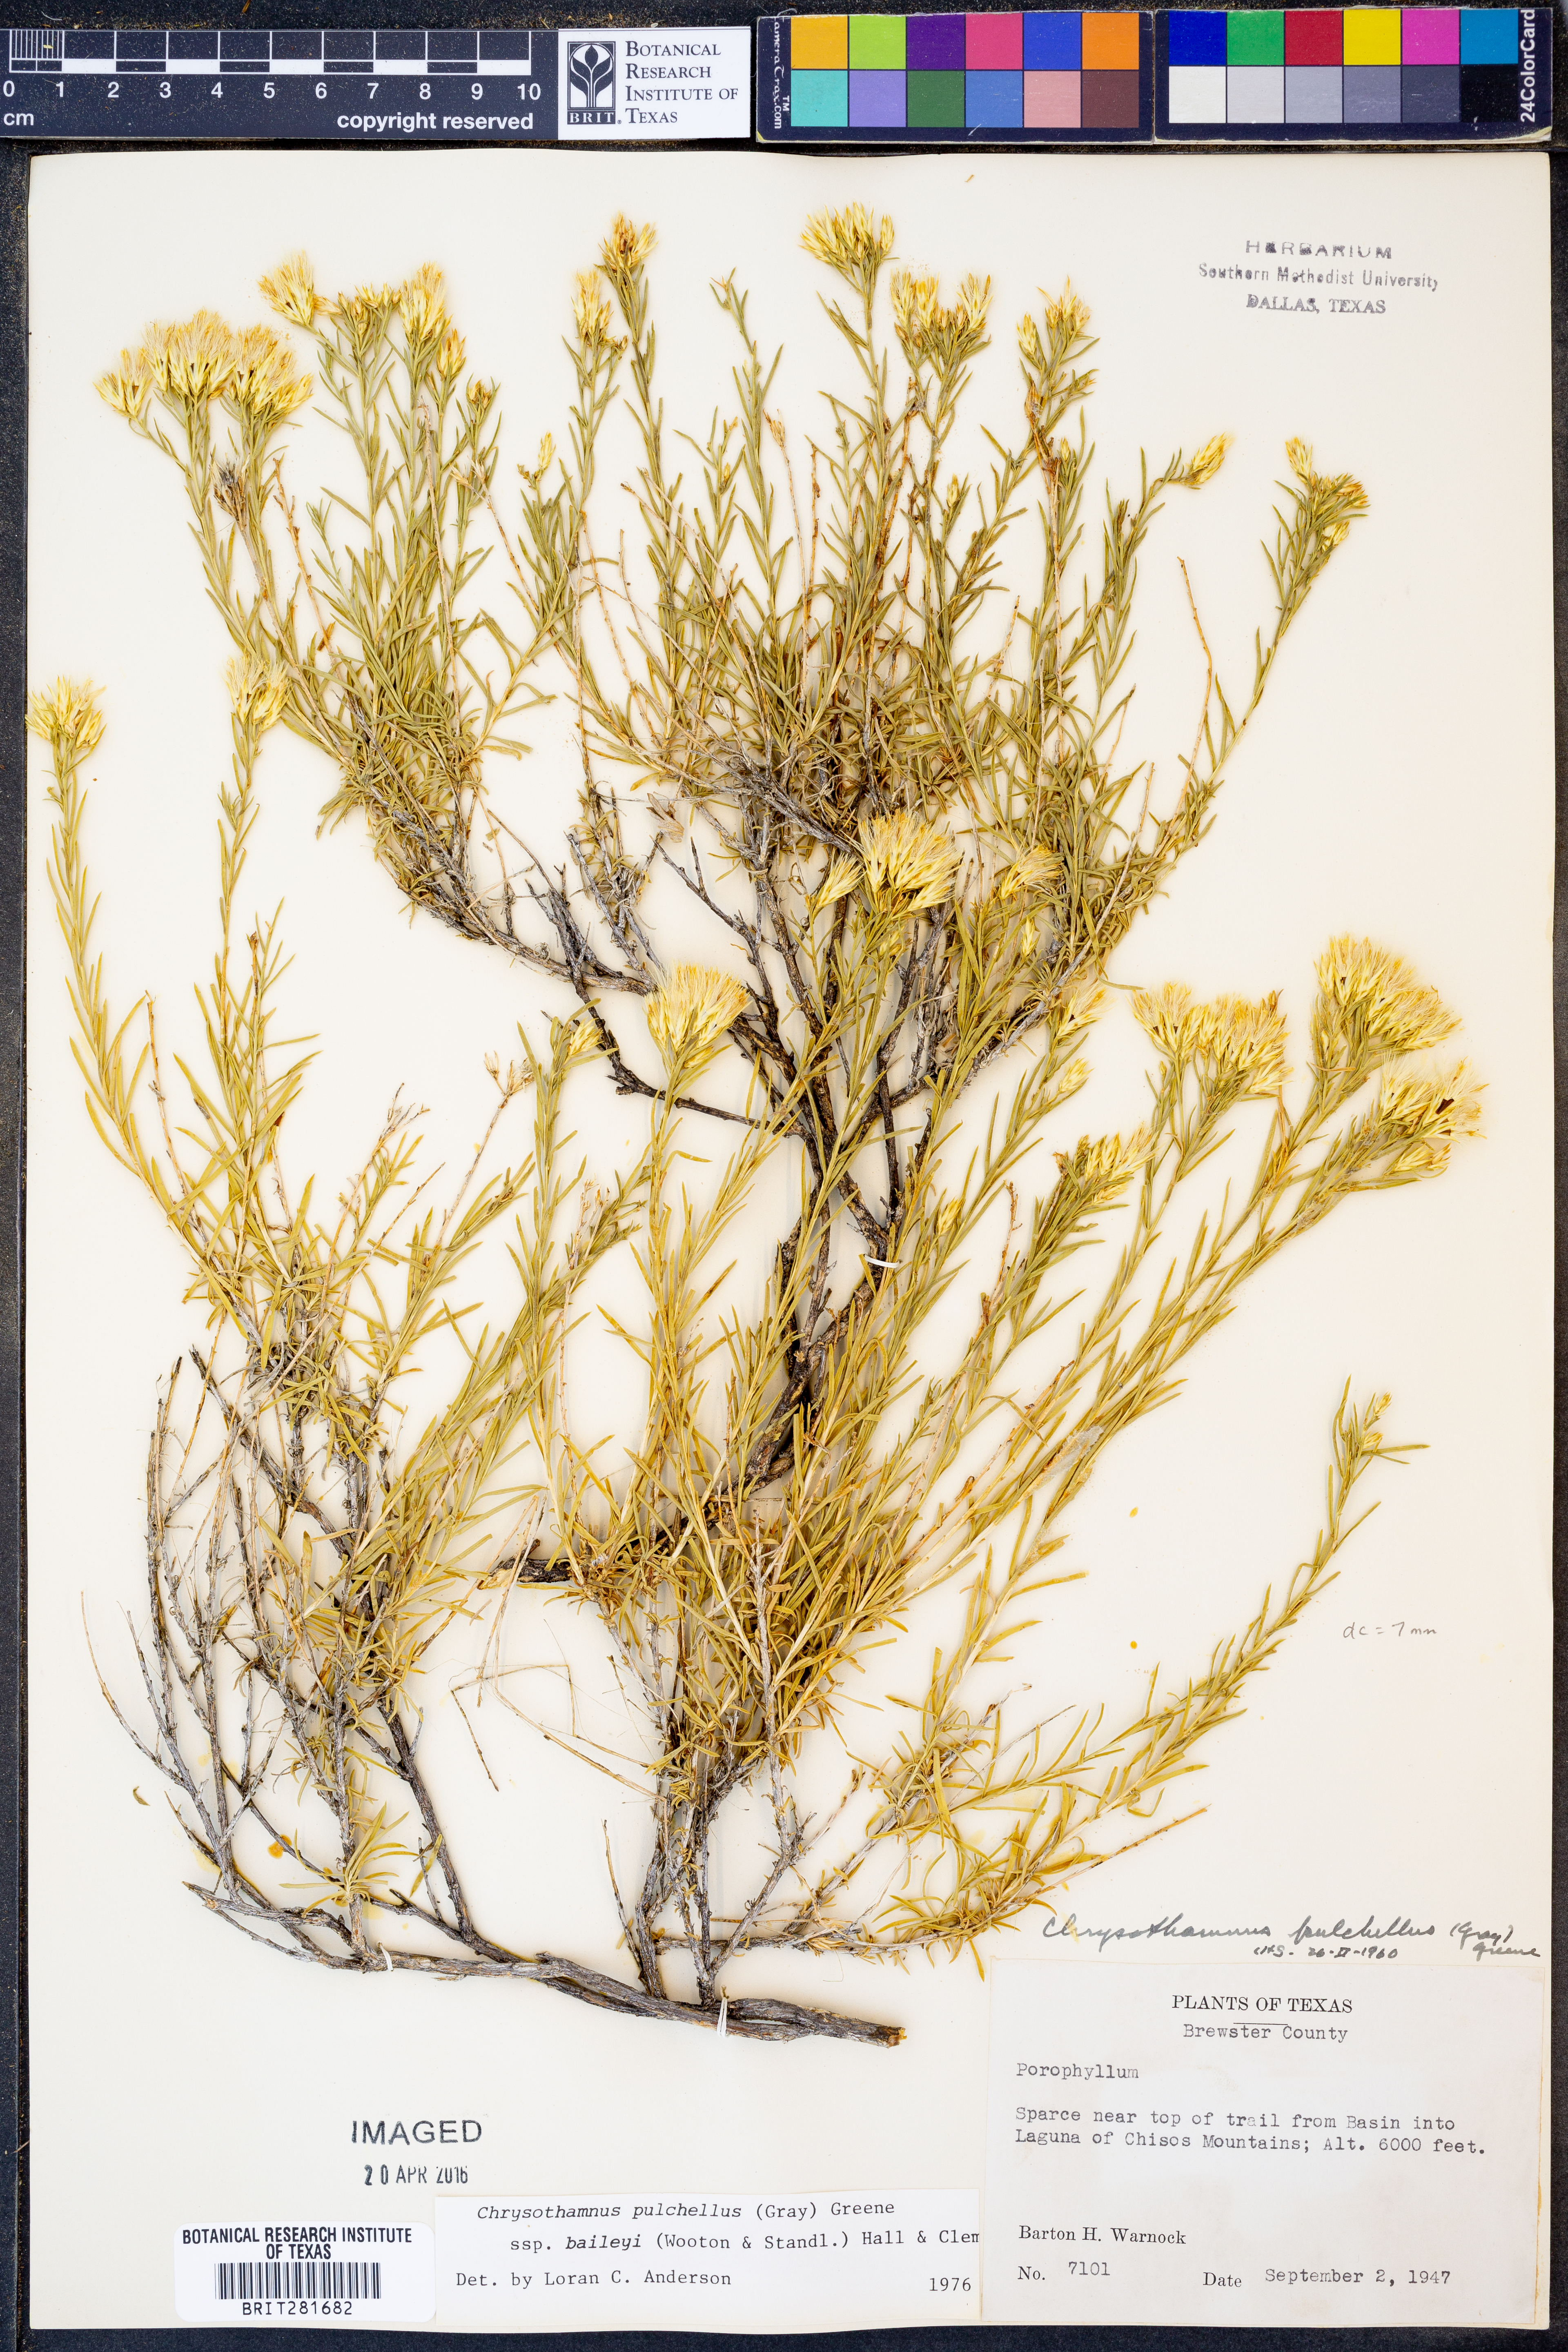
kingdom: Plantae
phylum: Tracheophyta
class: Magnoliopsida
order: Asterales
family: Asteraceae
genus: Lorandersonia
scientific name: Lorandersonia baileyi
